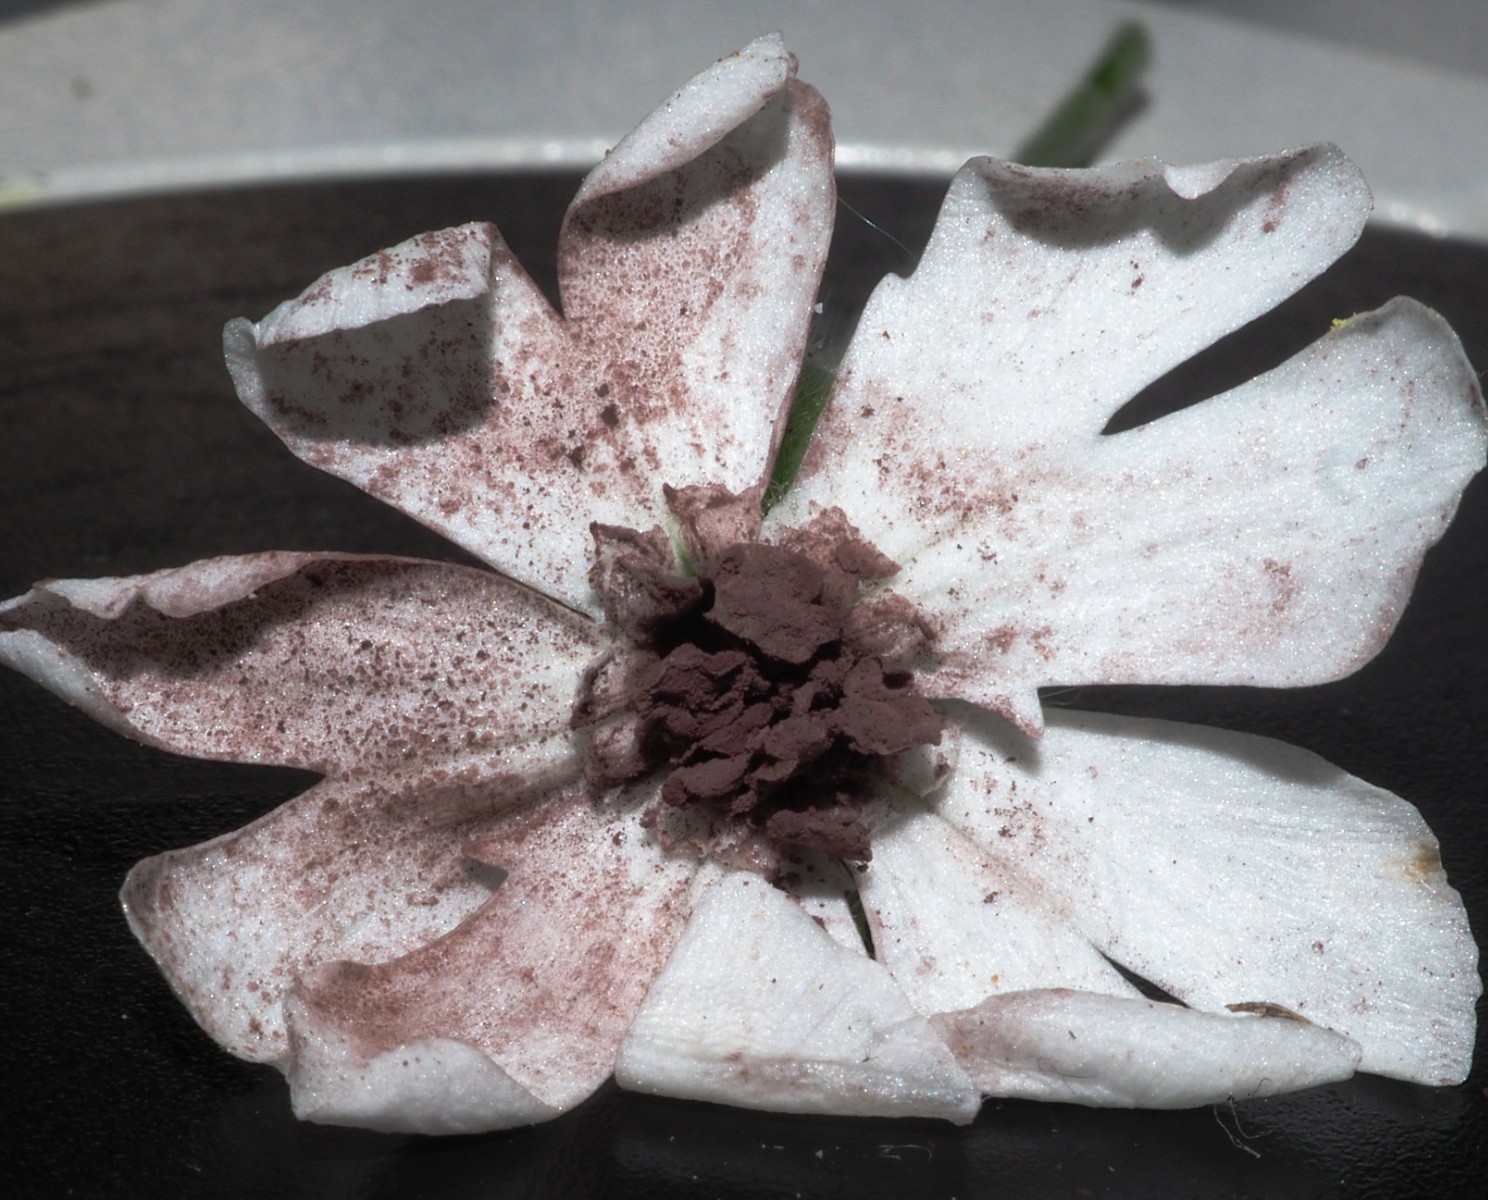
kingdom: Fungi
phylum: Basidiomycota
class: Microbotryomycetes
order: Microbotryales
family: Microbotryaceae
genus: Microbotryum
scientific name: Microbotryum lychnidis-dioicae
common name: Campion anther smut
